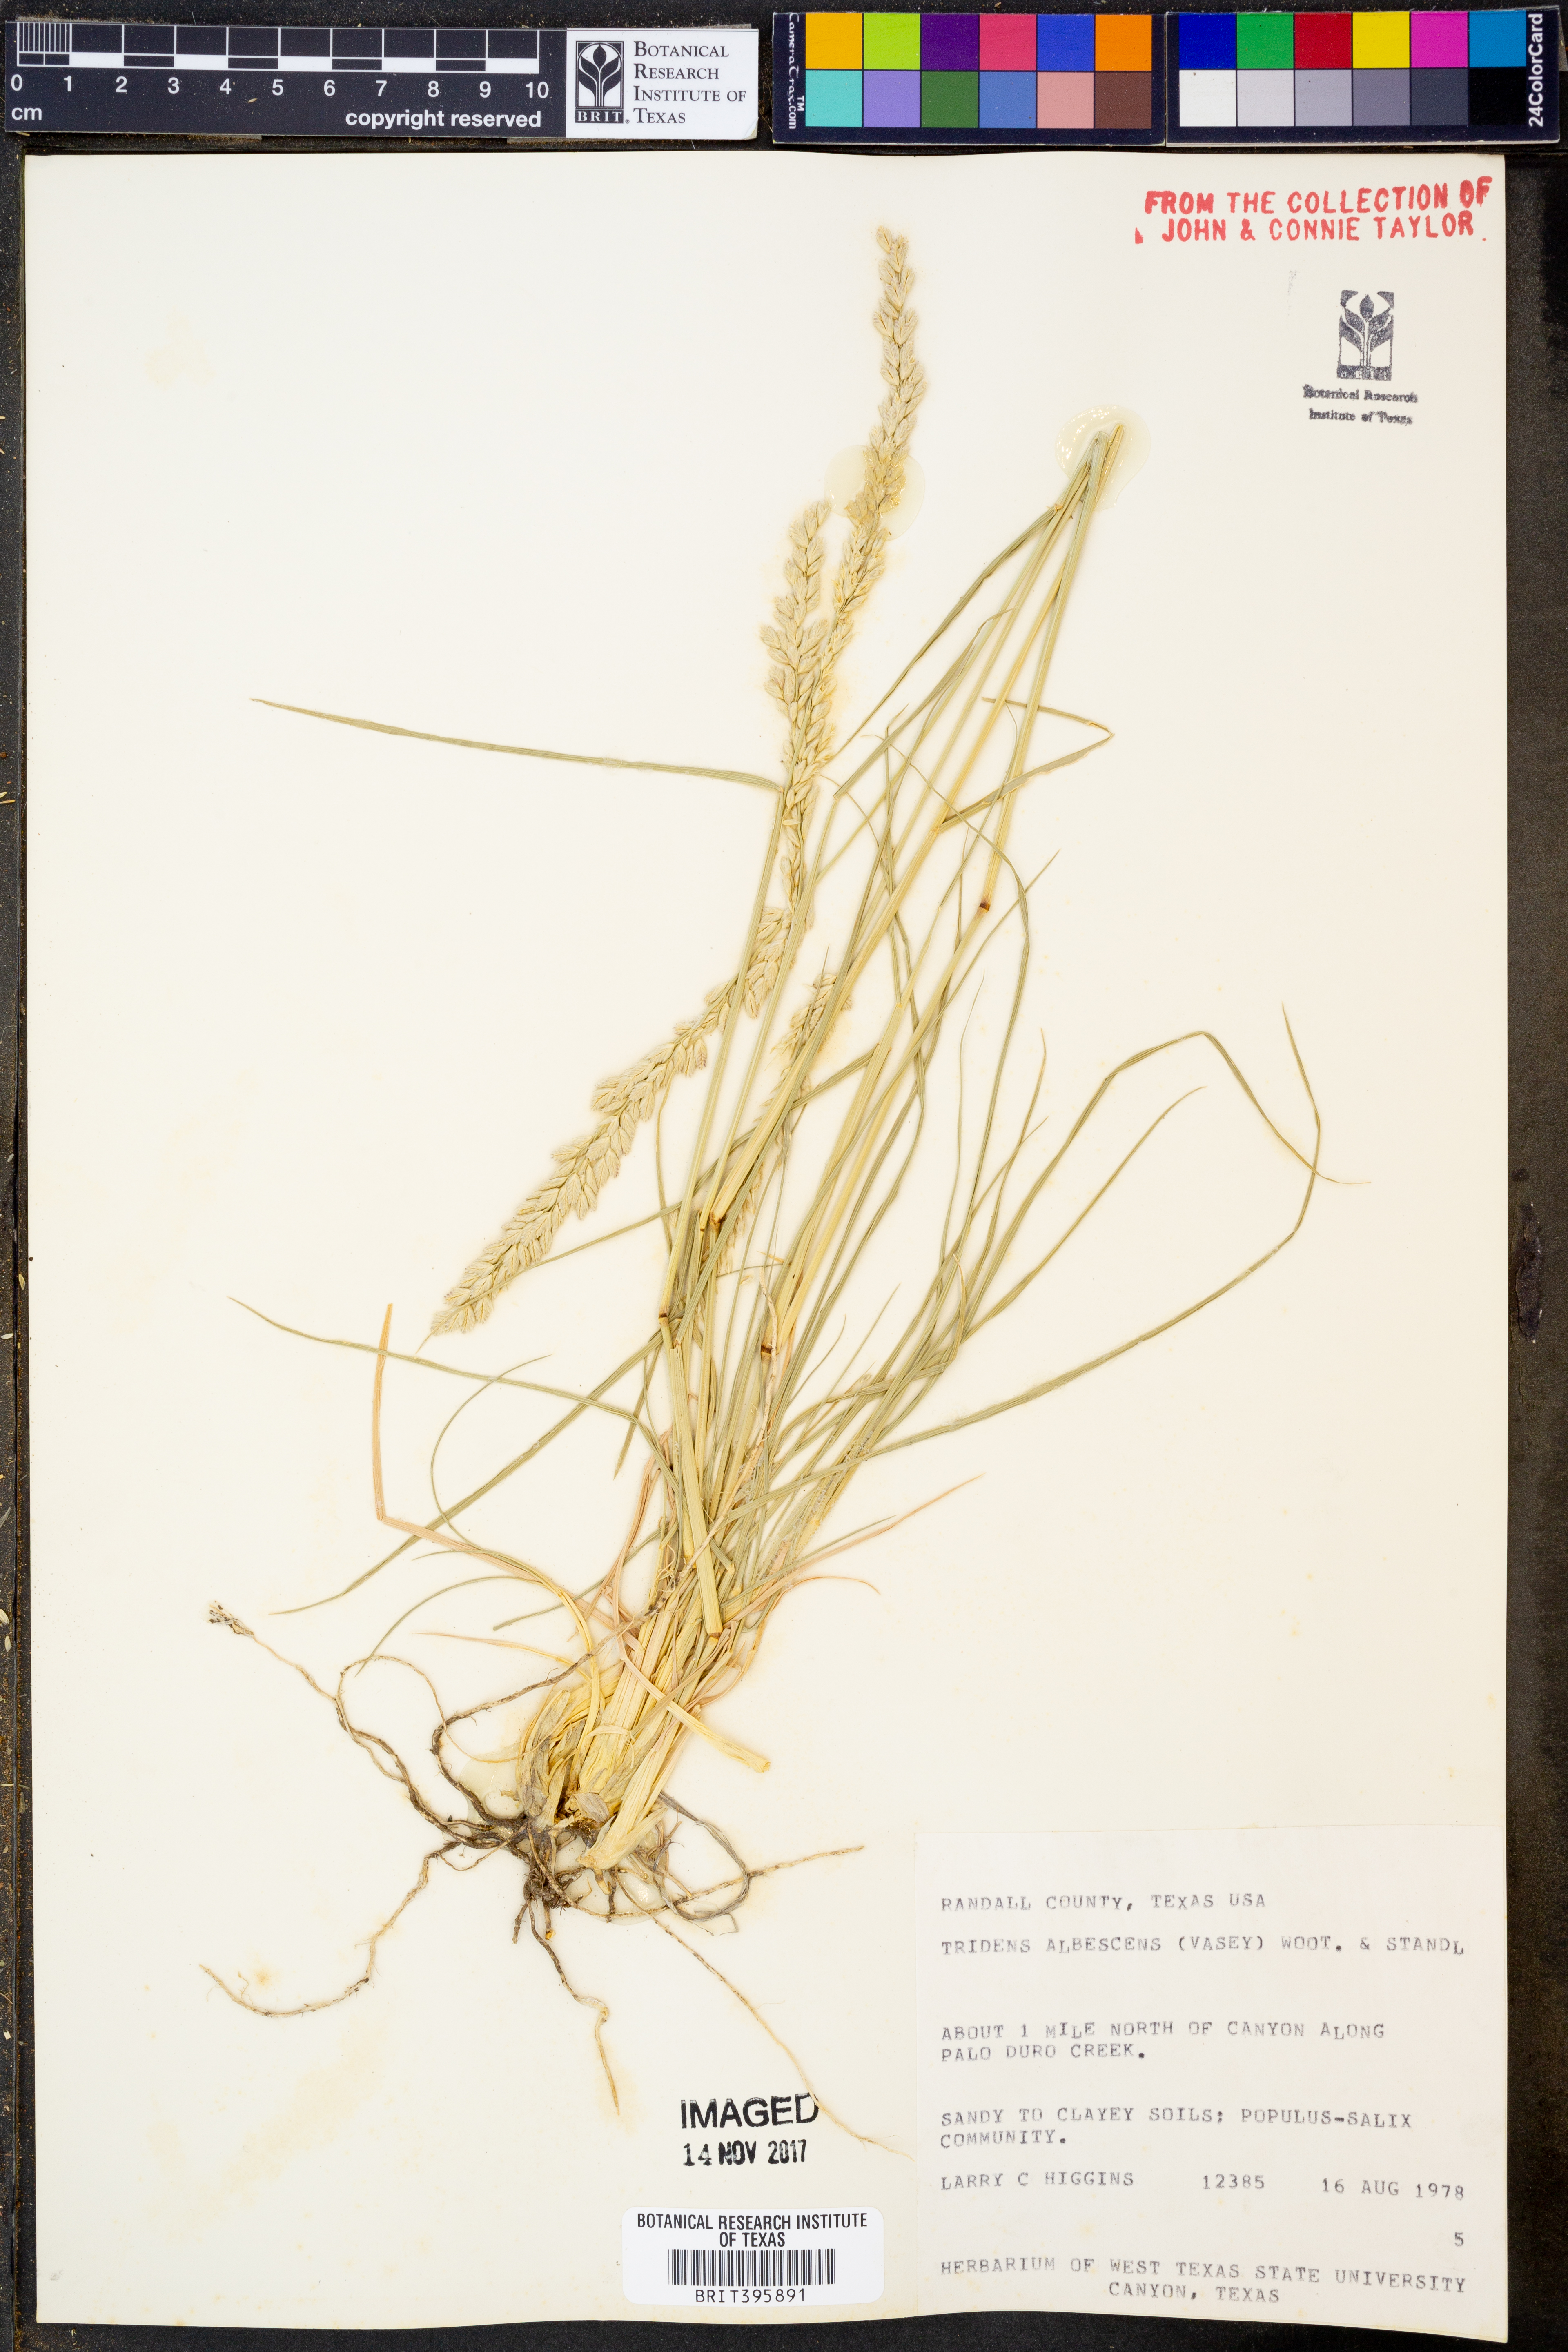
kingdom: Plantae
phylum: Tracheophyta
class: Liliopsida
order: Poales
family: Poaceae
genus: Tridens
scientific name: Tridens albescens
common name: White tridens
